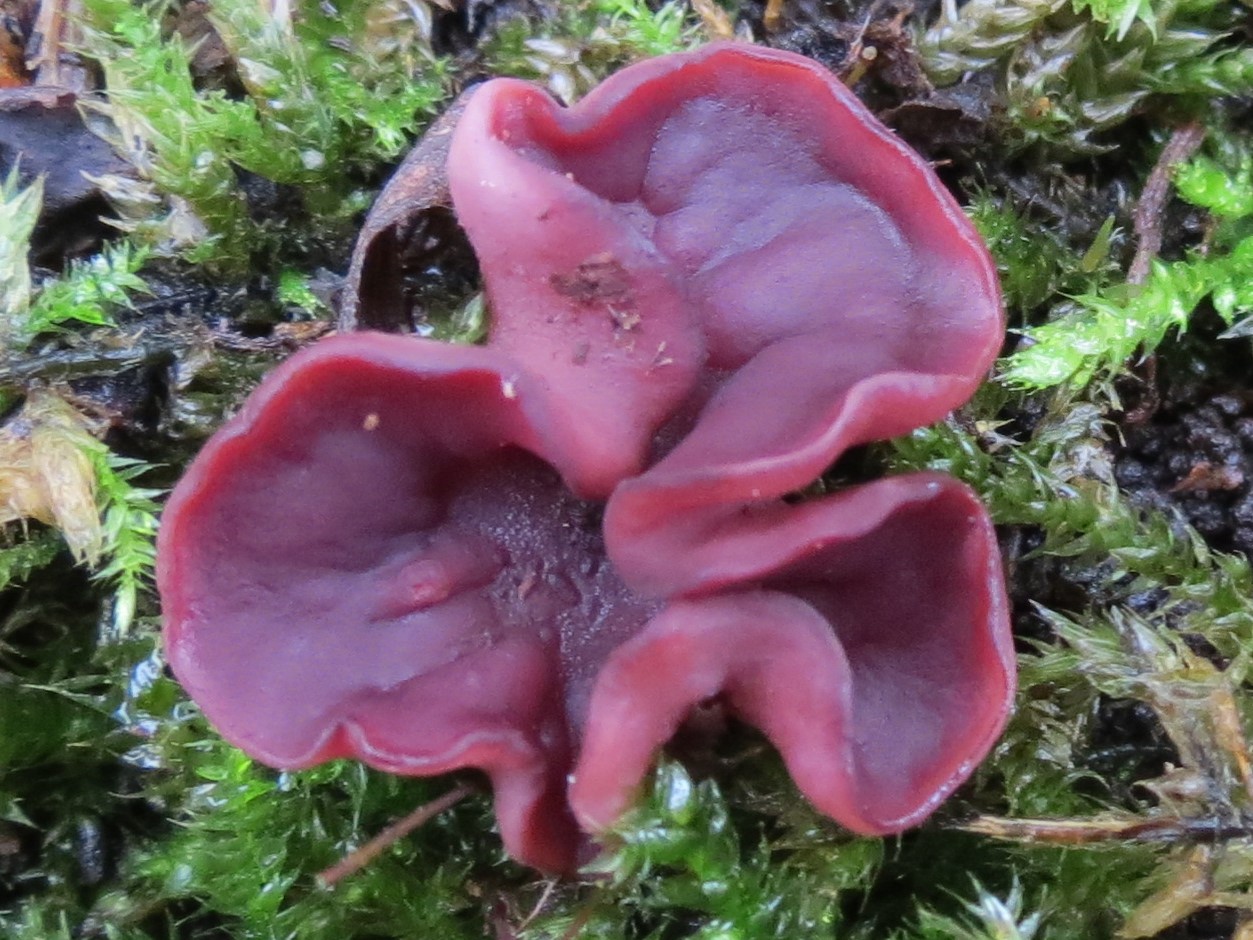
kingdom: Fungi
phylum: Ascomycota
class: Leotiomycetes
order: Helotiales
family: Gelatinodiscaceae
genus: Ascocoryne
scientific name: Ascocoryne sarcoides
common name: rødlilla sejskive
